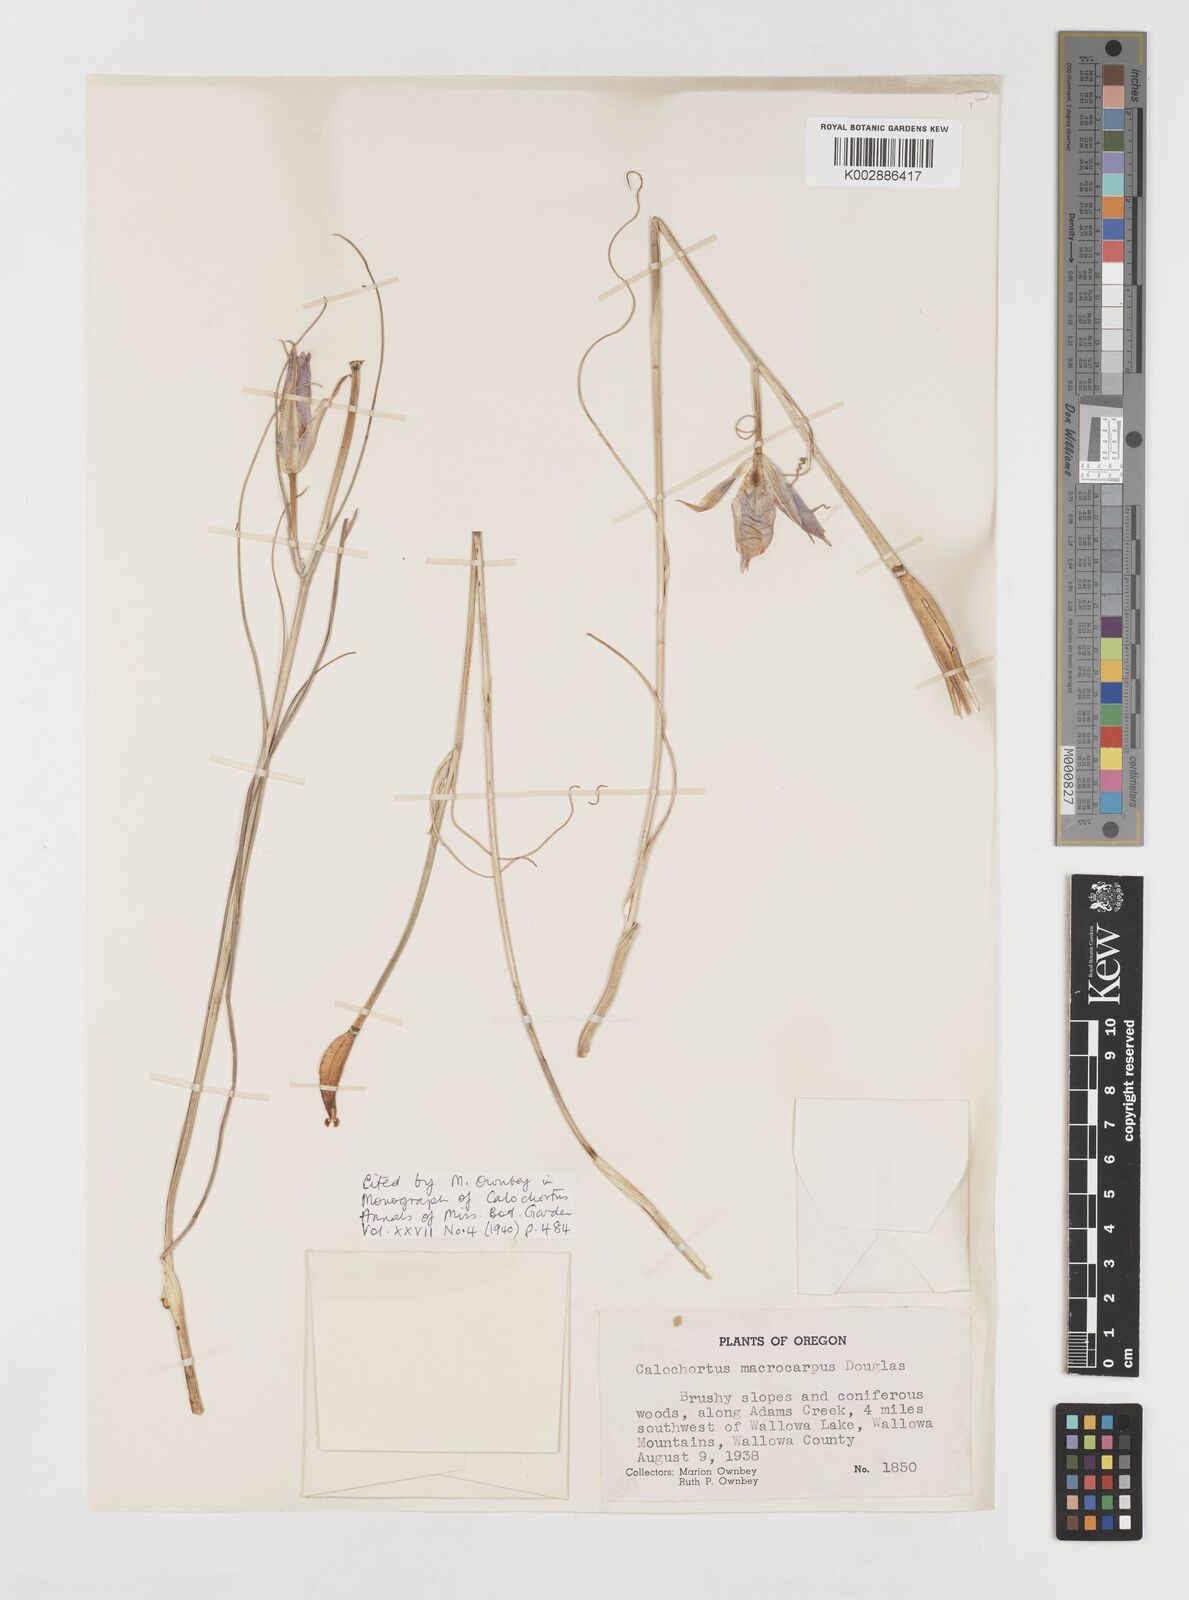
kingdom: Plantae
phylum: Tracheophyta
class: Liliopsida
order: Liliales
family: Liliaceae
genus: Calochortus
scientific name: Calochortus macrocarpus
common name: Green-band mariposa lily
